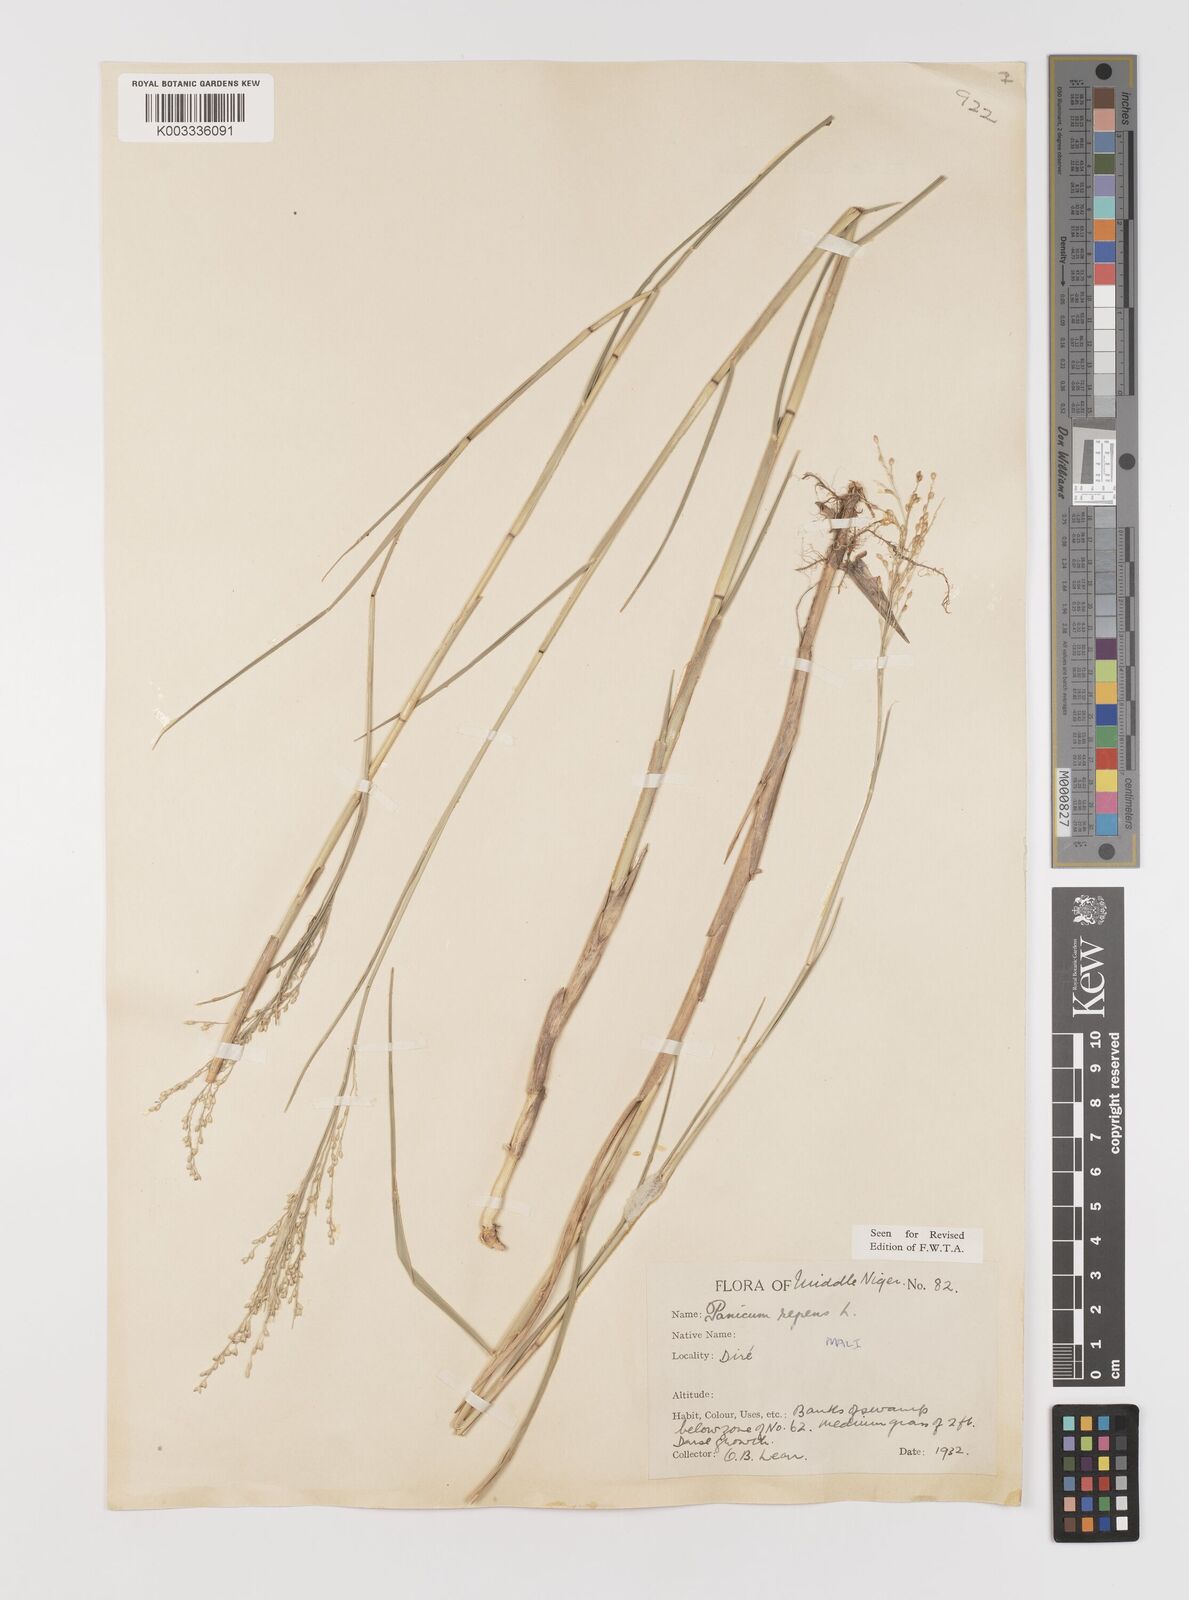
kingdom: Plantae
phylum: Tracheophyta
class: Liliopsida
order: Poales
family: Poaceae
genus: Panicum
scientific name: Panicum repens
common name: Torpedo grass
